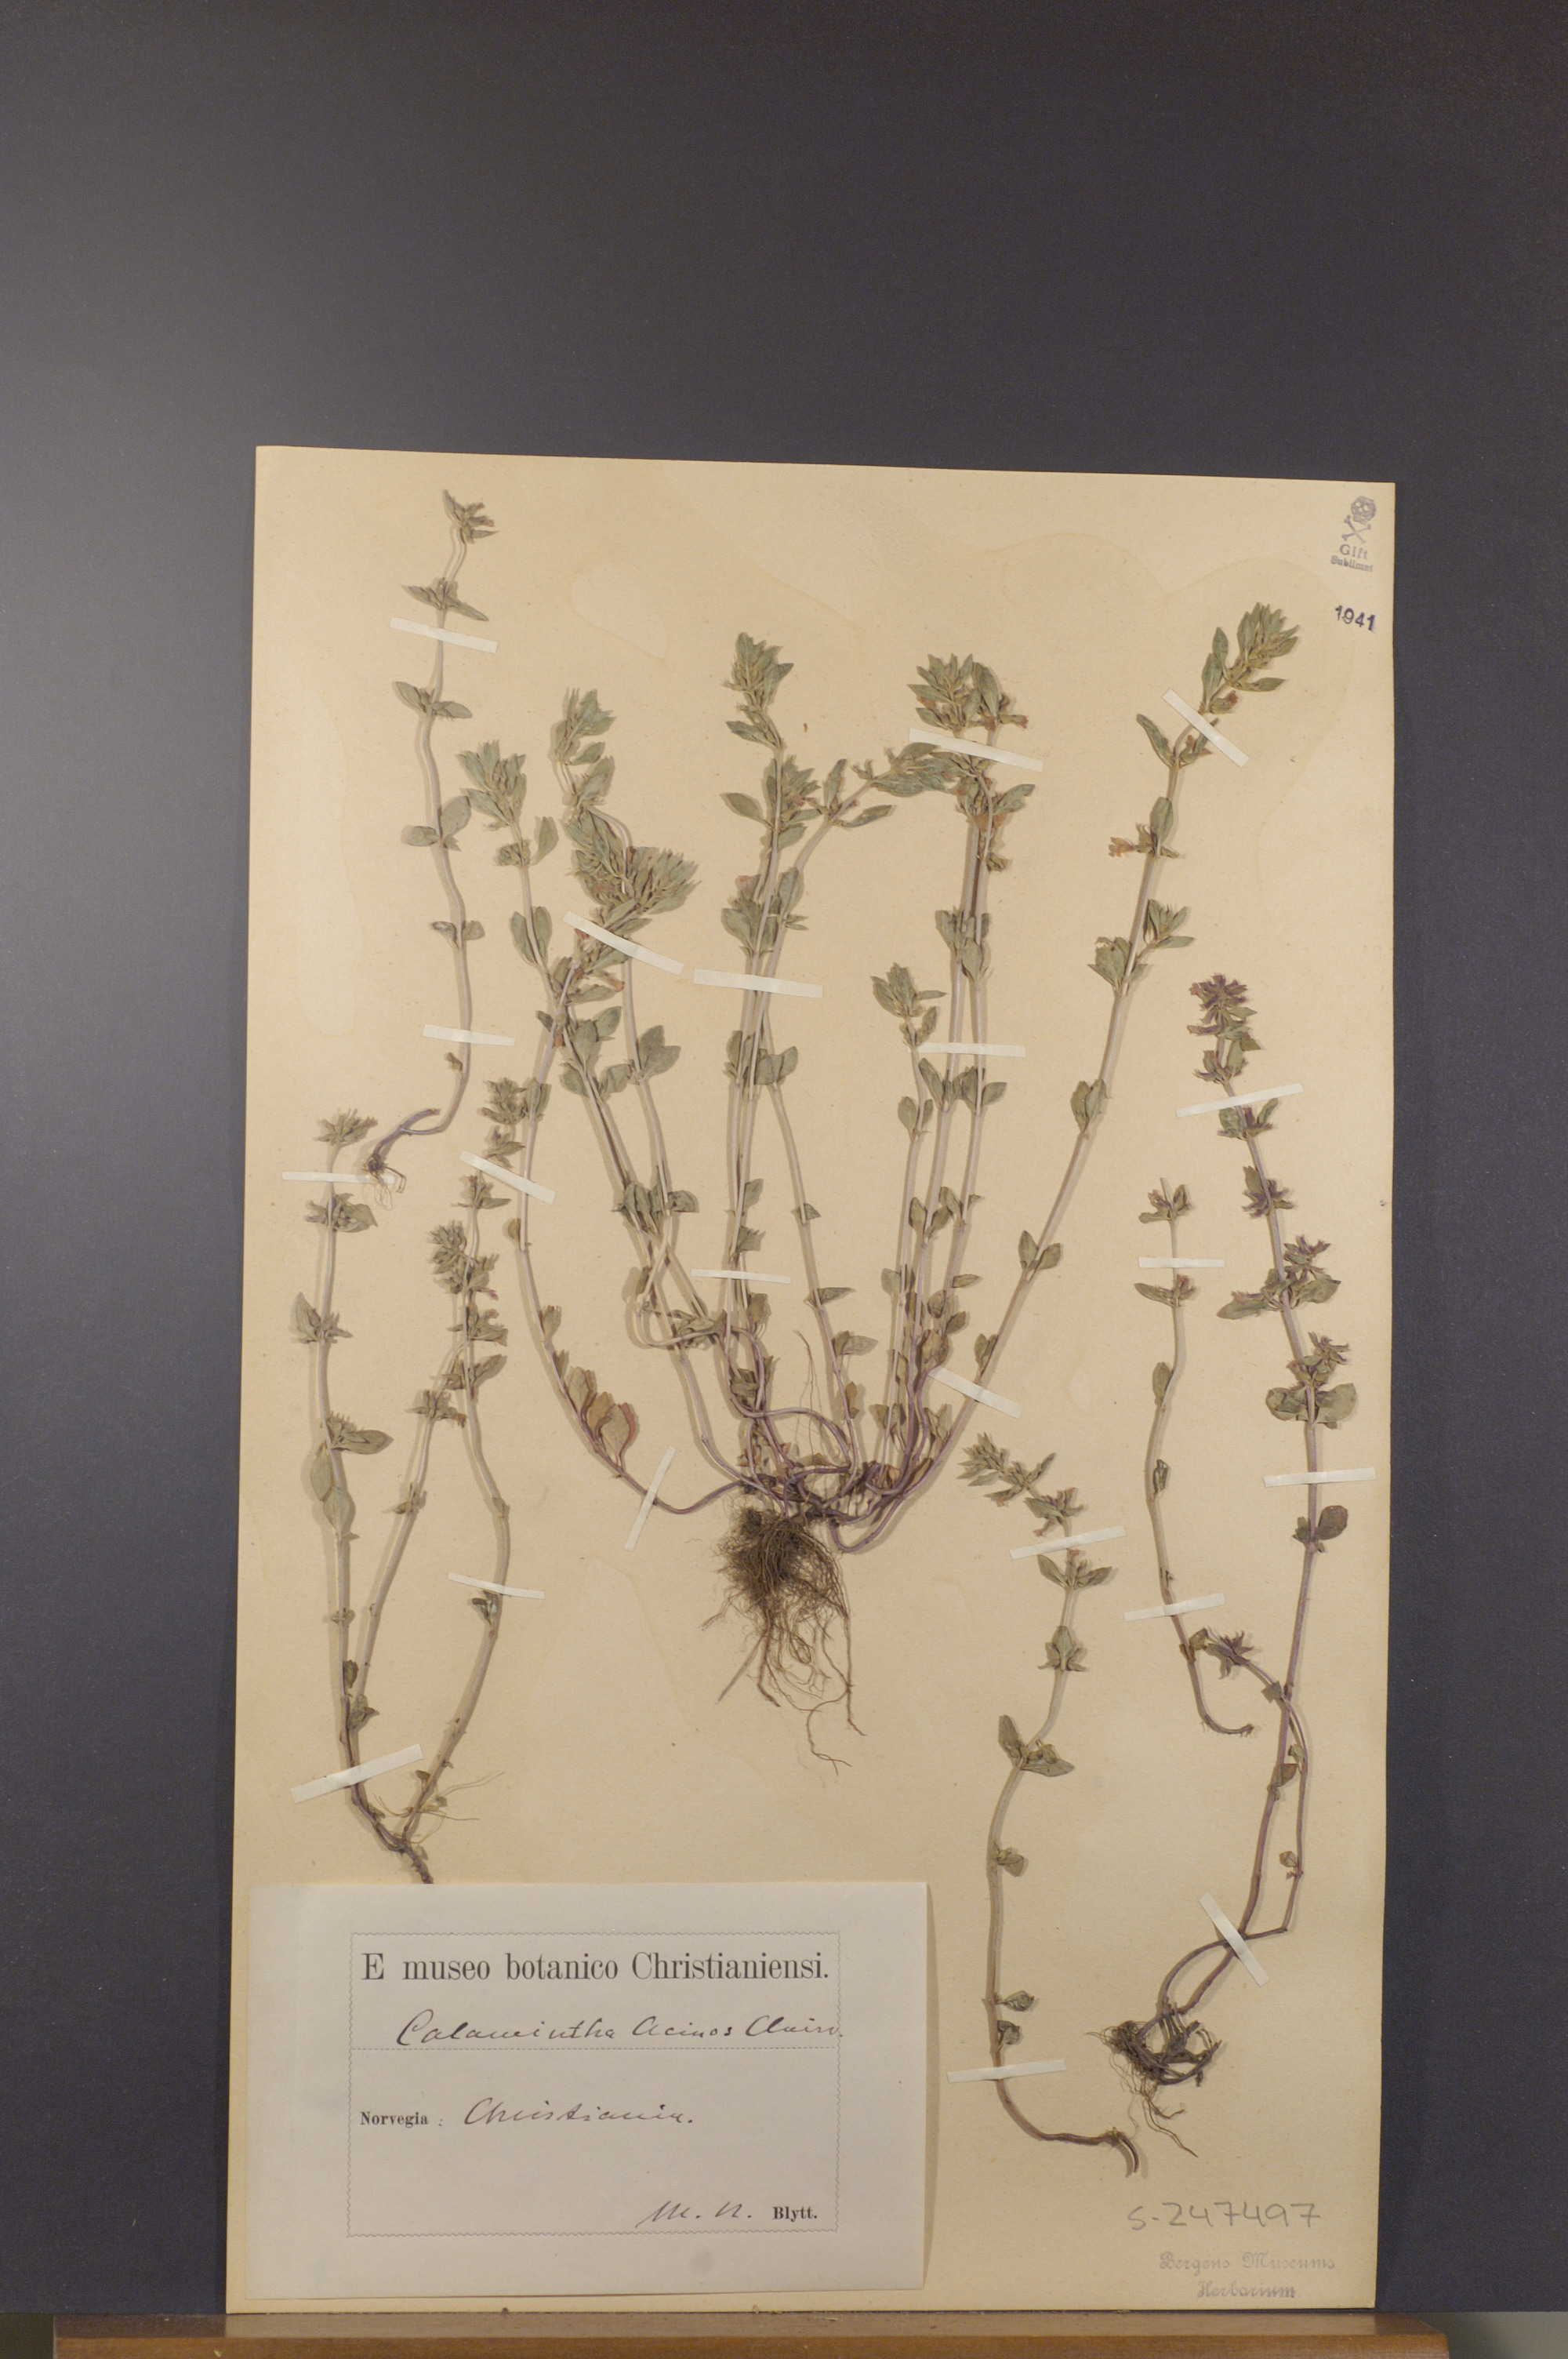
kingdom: Plantae
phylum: Tracheophyta
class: Magnoliopsida
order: Lamiales
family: Lamiaceae
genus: Clinopodium
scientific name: Clinopodium acinos
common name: Basil thyme
